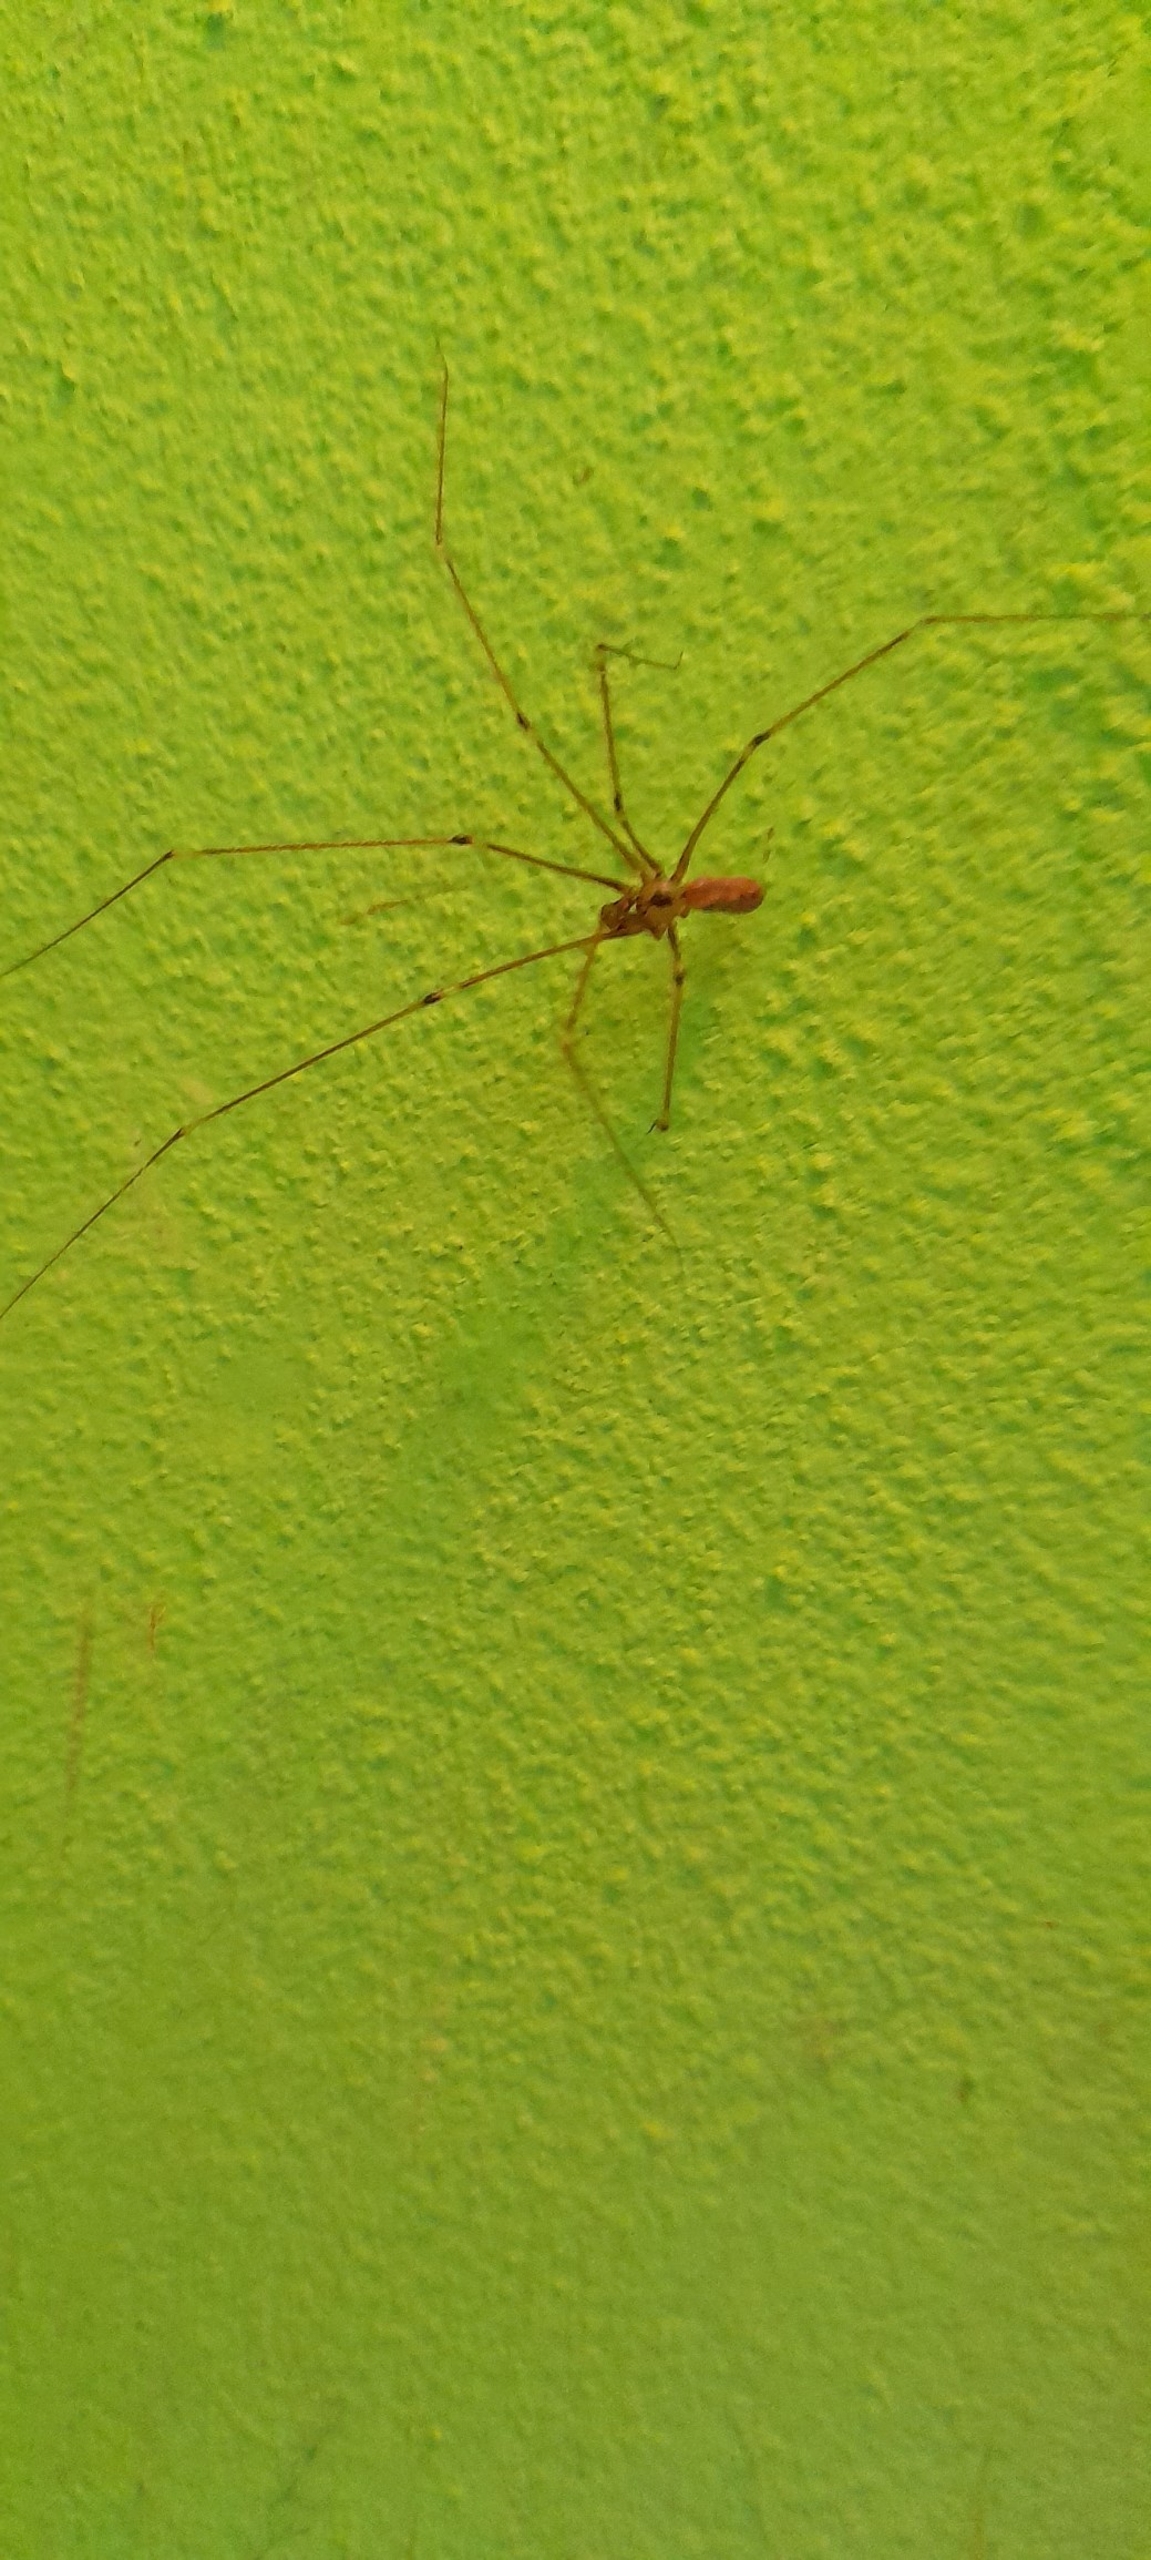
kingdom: Animalia
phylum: Arthropoda
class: Arachnida
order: Araneae
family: Pholcidae
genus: Pholcus
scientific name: Pholcus phalangioides
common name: Mejeredderkop
